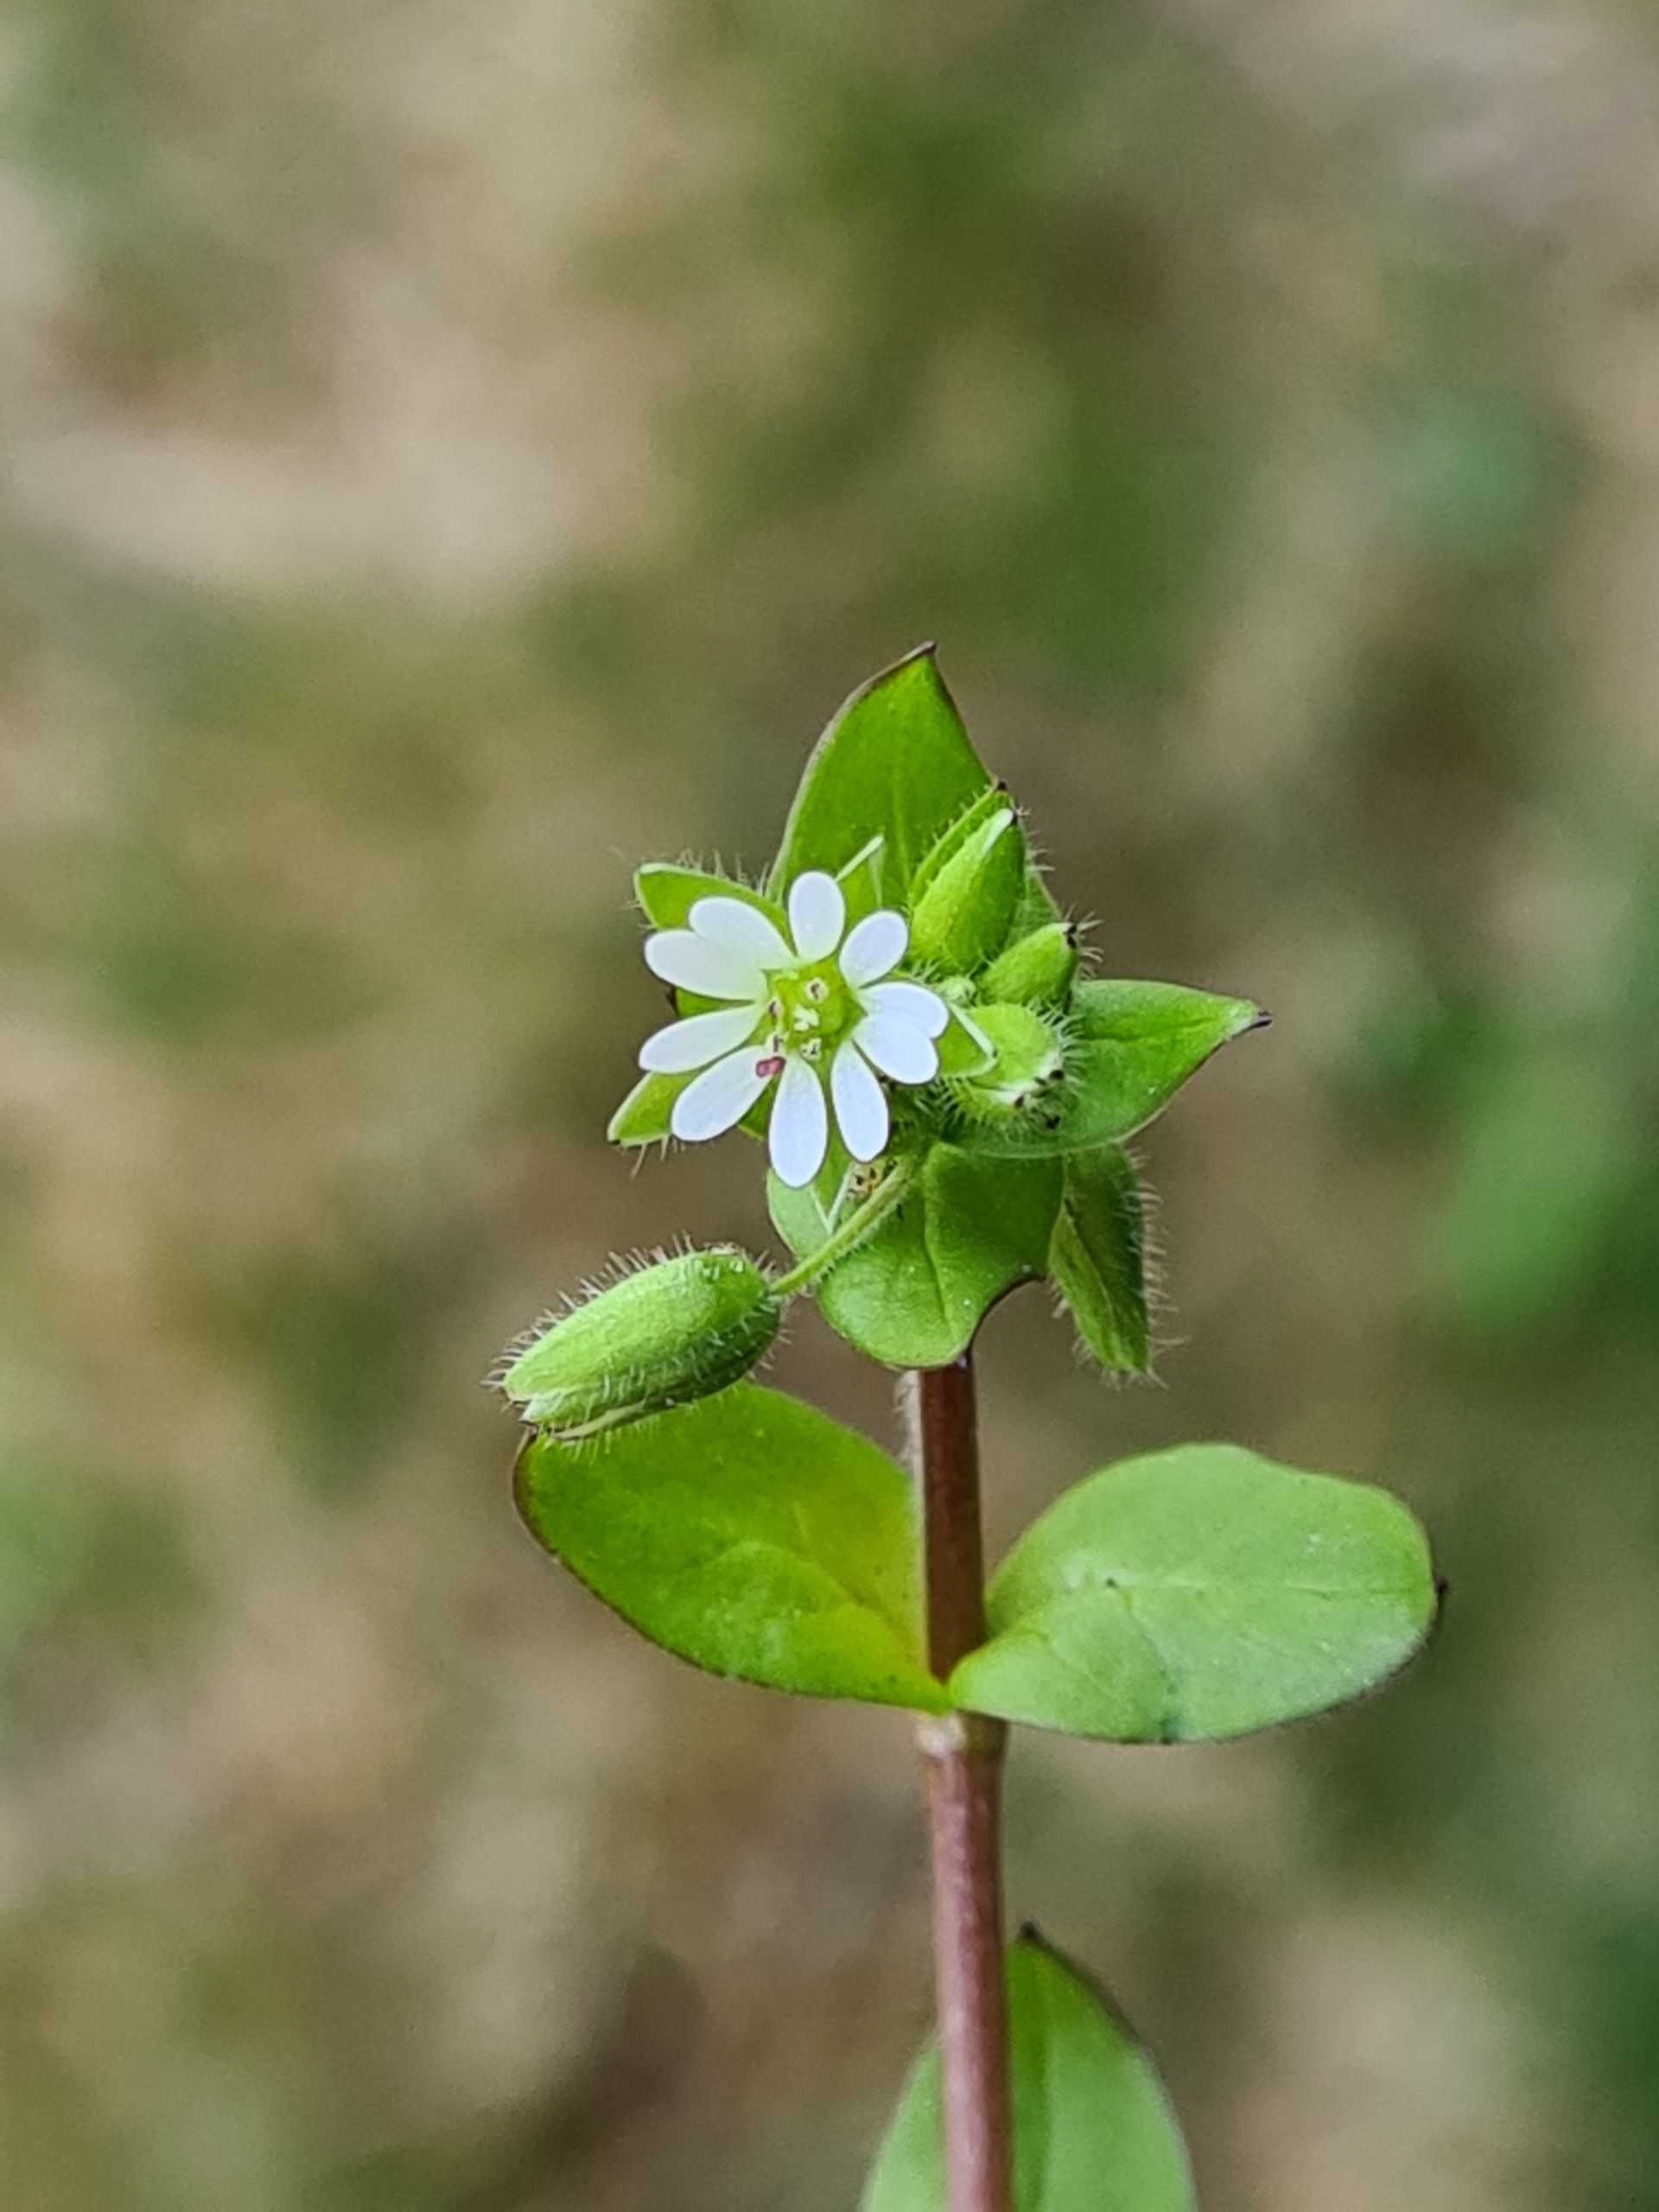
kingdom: Plantae
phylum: Tracheophyta
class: Magnoliopsida
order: Caryophyllales
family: Caryophyllaceae
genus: Stellaria
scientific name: Stellaria media
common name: Almindelig fuglegræs
